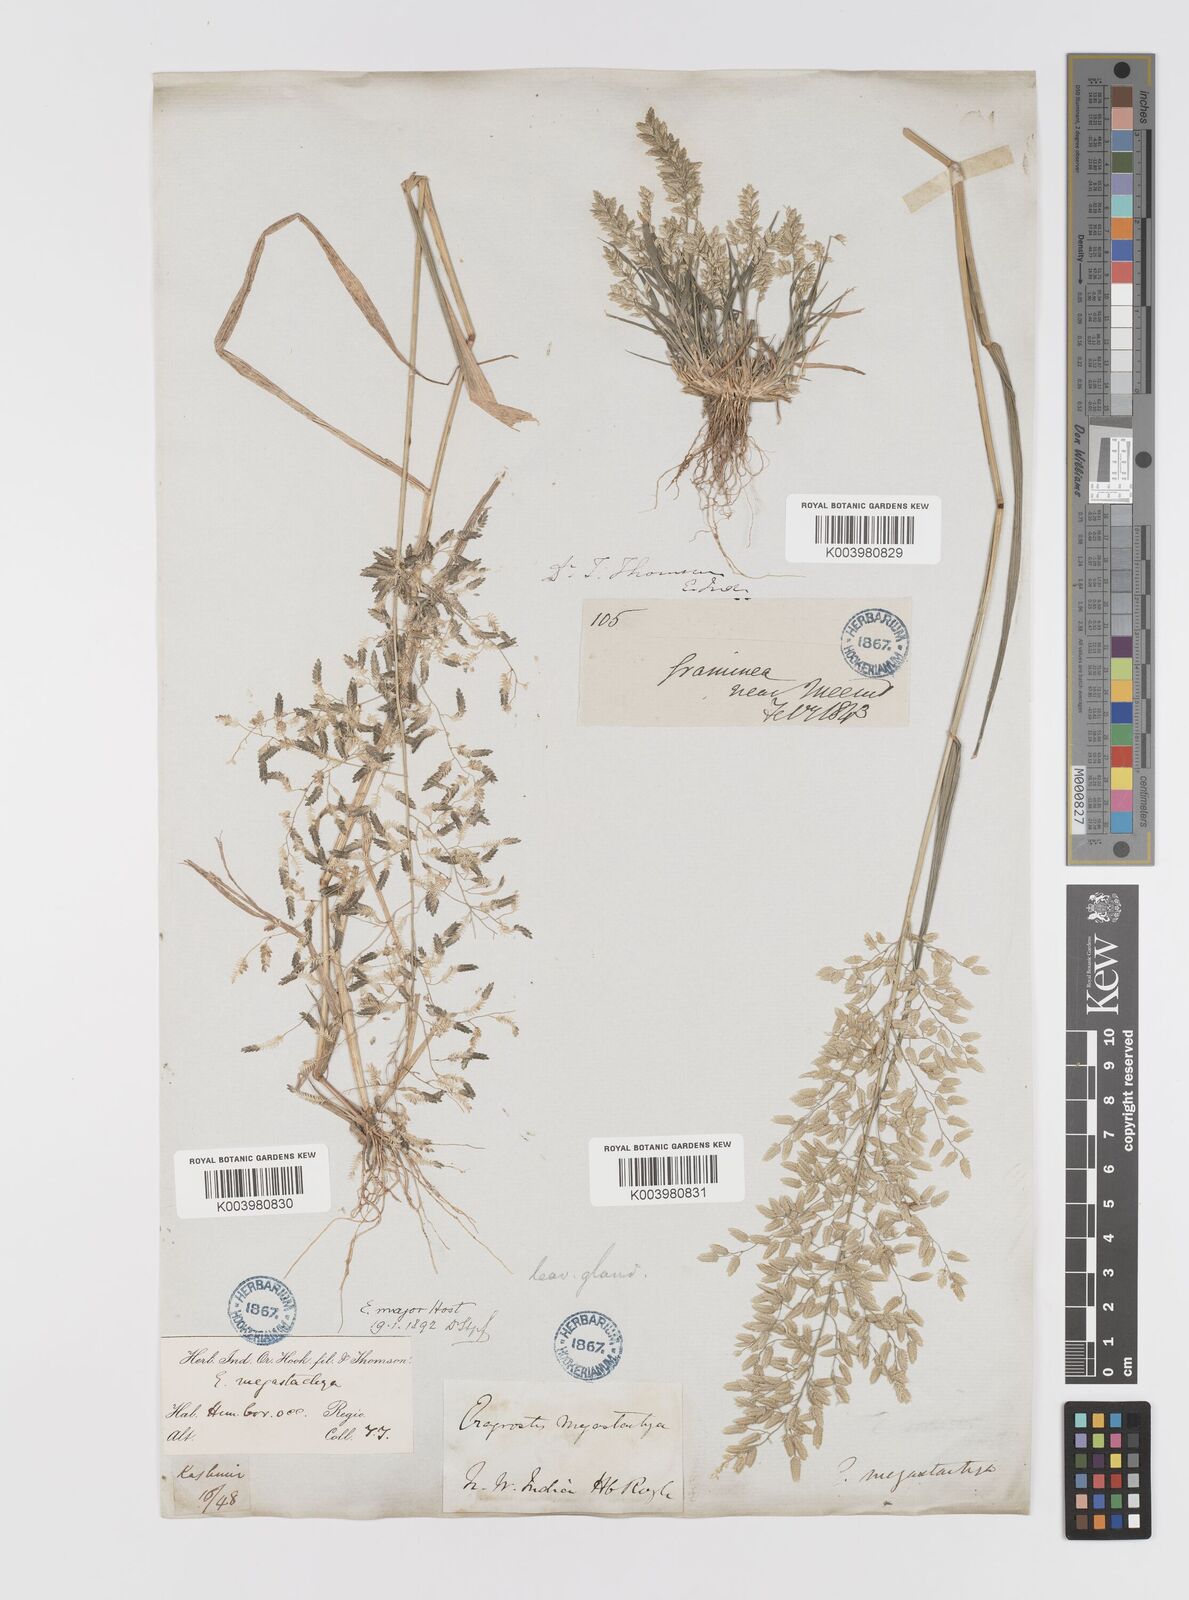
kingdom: Plantae
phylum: Tracheophyta
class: Liliopsida
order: Poales
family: Poaceae
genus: Eragrostis
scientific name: Eragrostis cilianensis
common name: Stinkgrass
